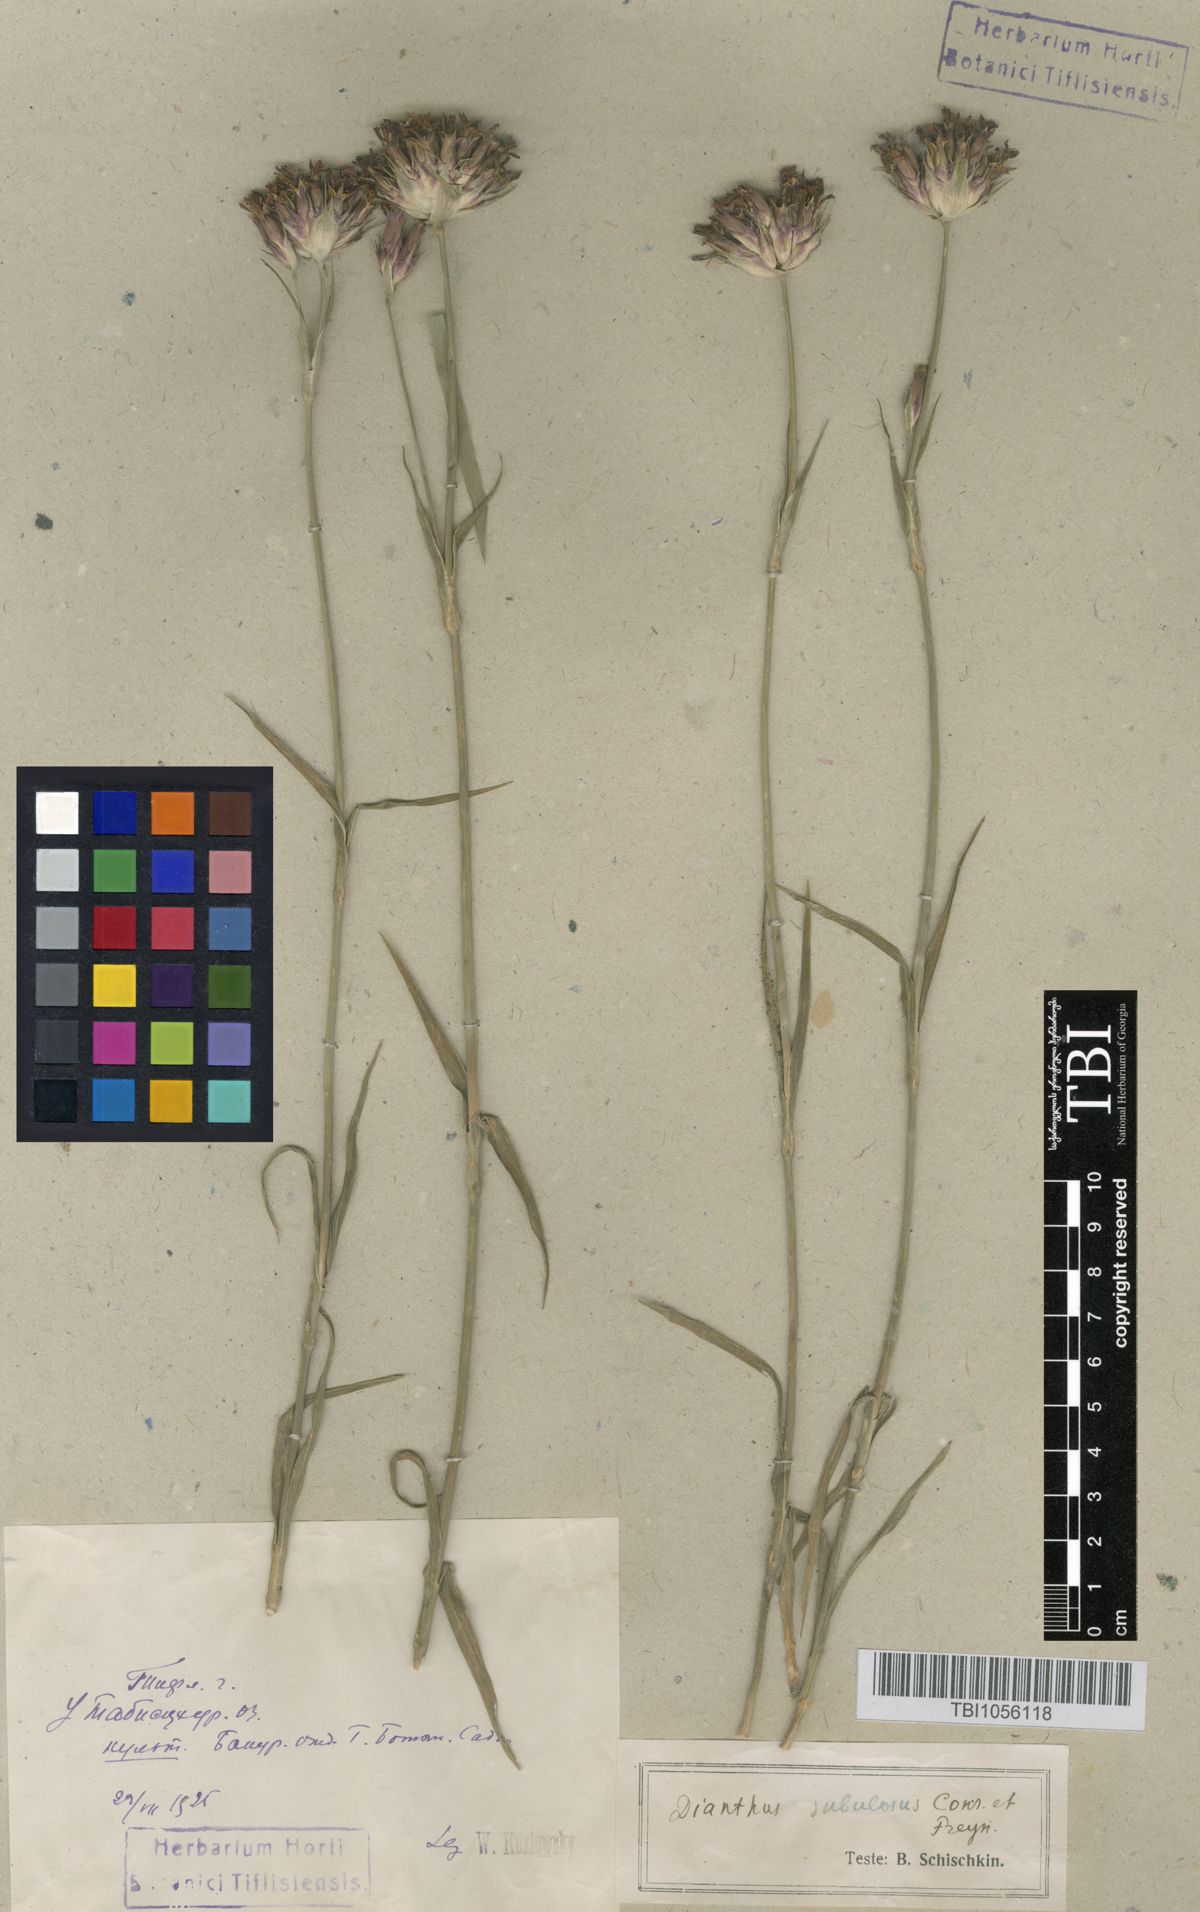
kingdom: Plantae
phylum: Tracheophyta
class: Magnoliopsida
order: Caryophyllales
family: Caryophyllaceae
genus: Dianthus
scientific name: Dianthus subulosus
